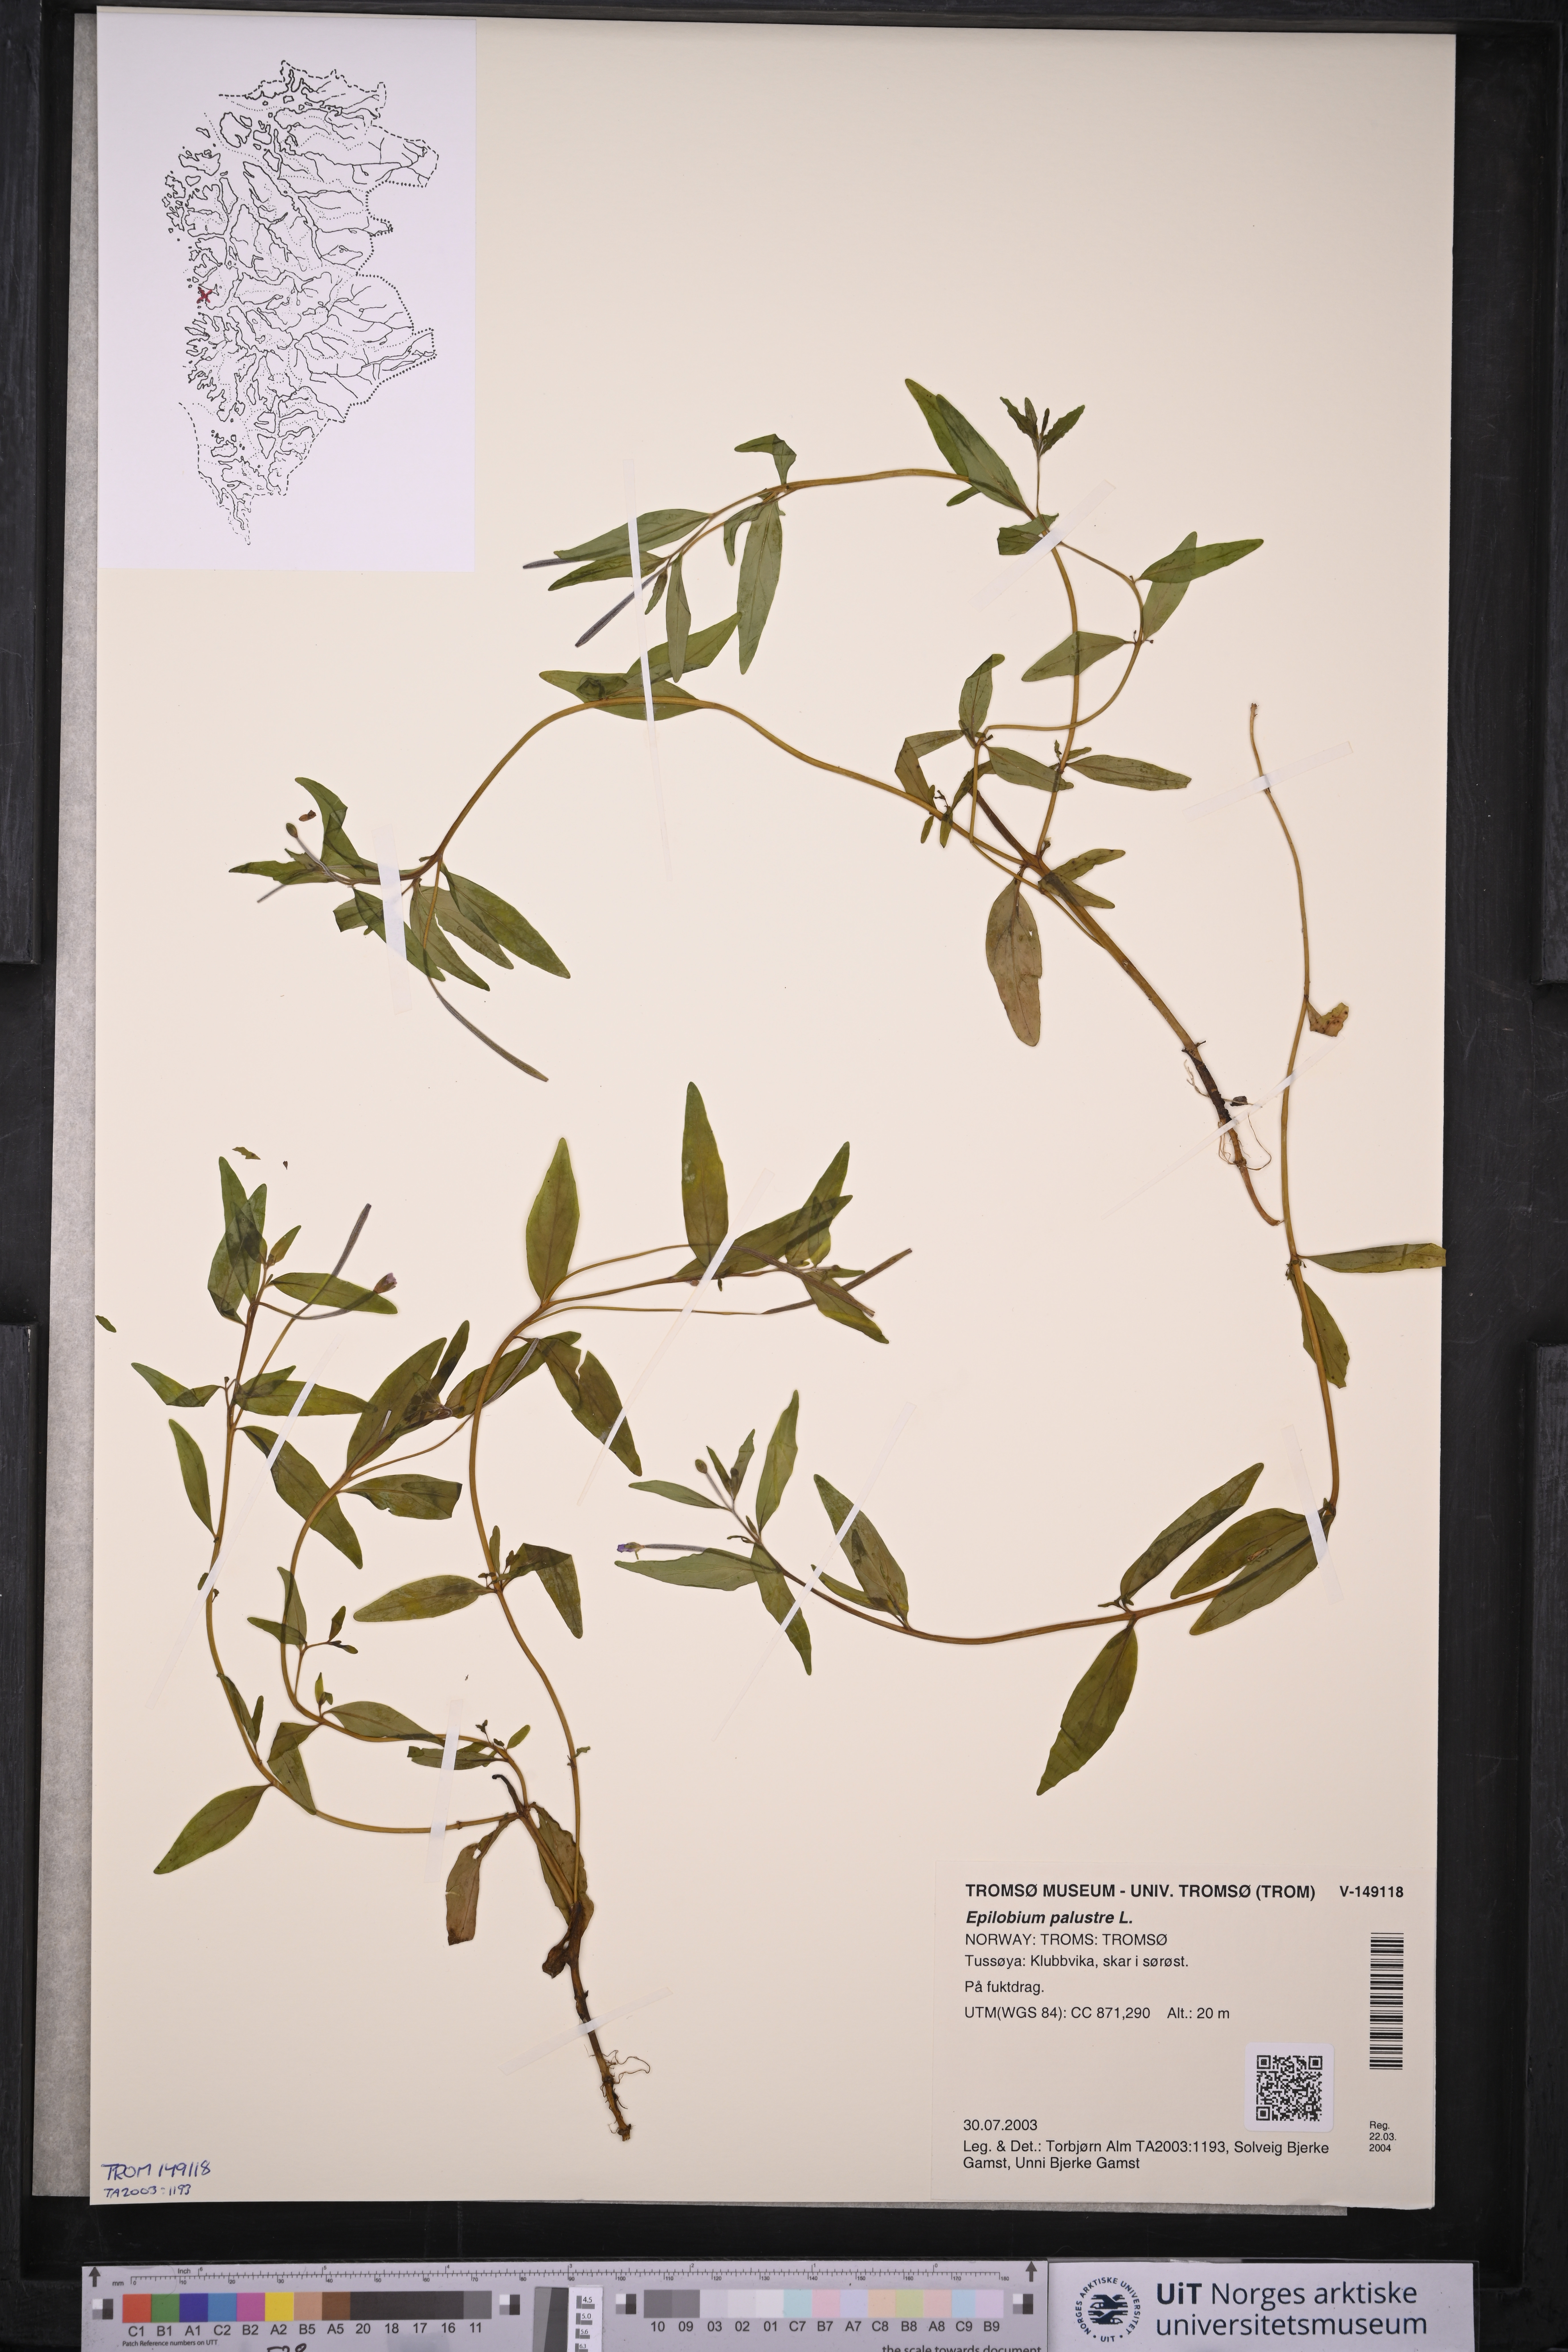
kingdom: Plantae
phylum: Tracheophyta
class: Magnoliopsida
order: Myrtales
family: Onagraceae
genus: Epilobium
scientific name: Epilobium palustre
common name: Marsh willowherb
